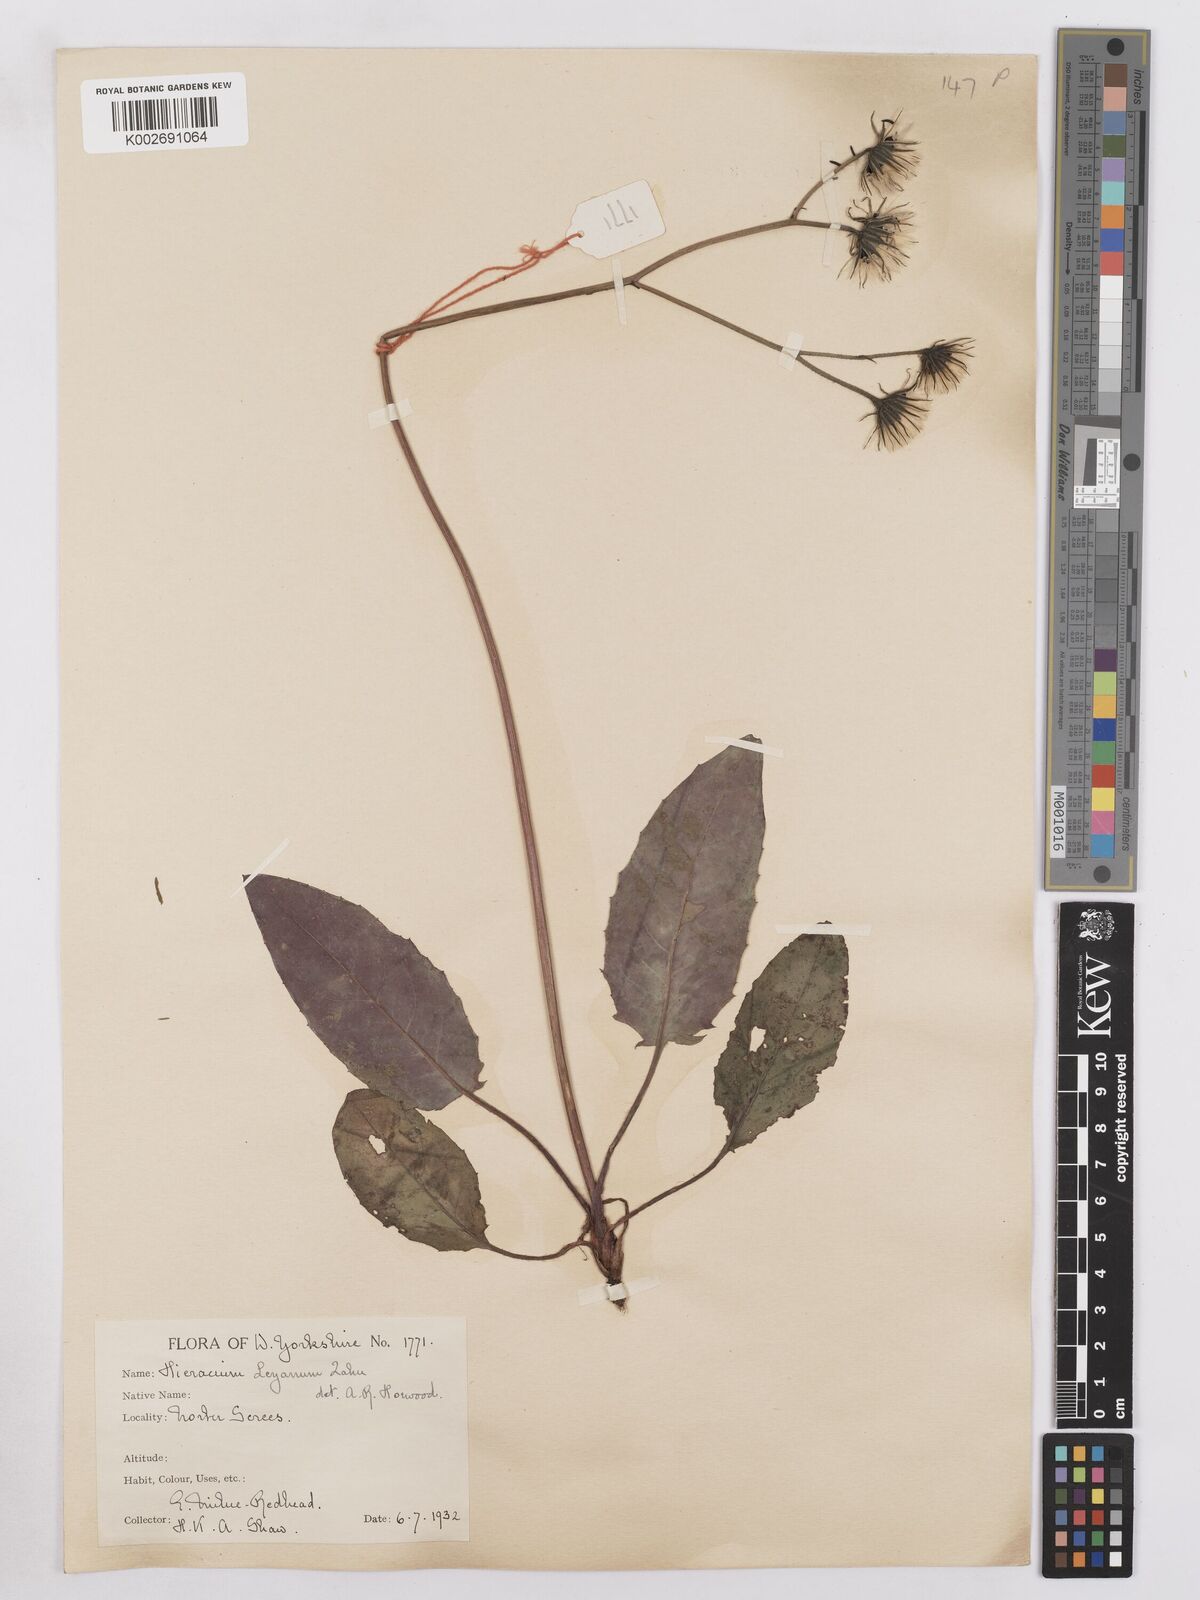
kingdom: Plantae
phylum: Tracheophyta
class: Magnoliopsida
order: Asterales
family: Asteraceae
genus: Hieracium
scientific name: Hieracium leyanum
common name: Fat-leaved hawkweed
